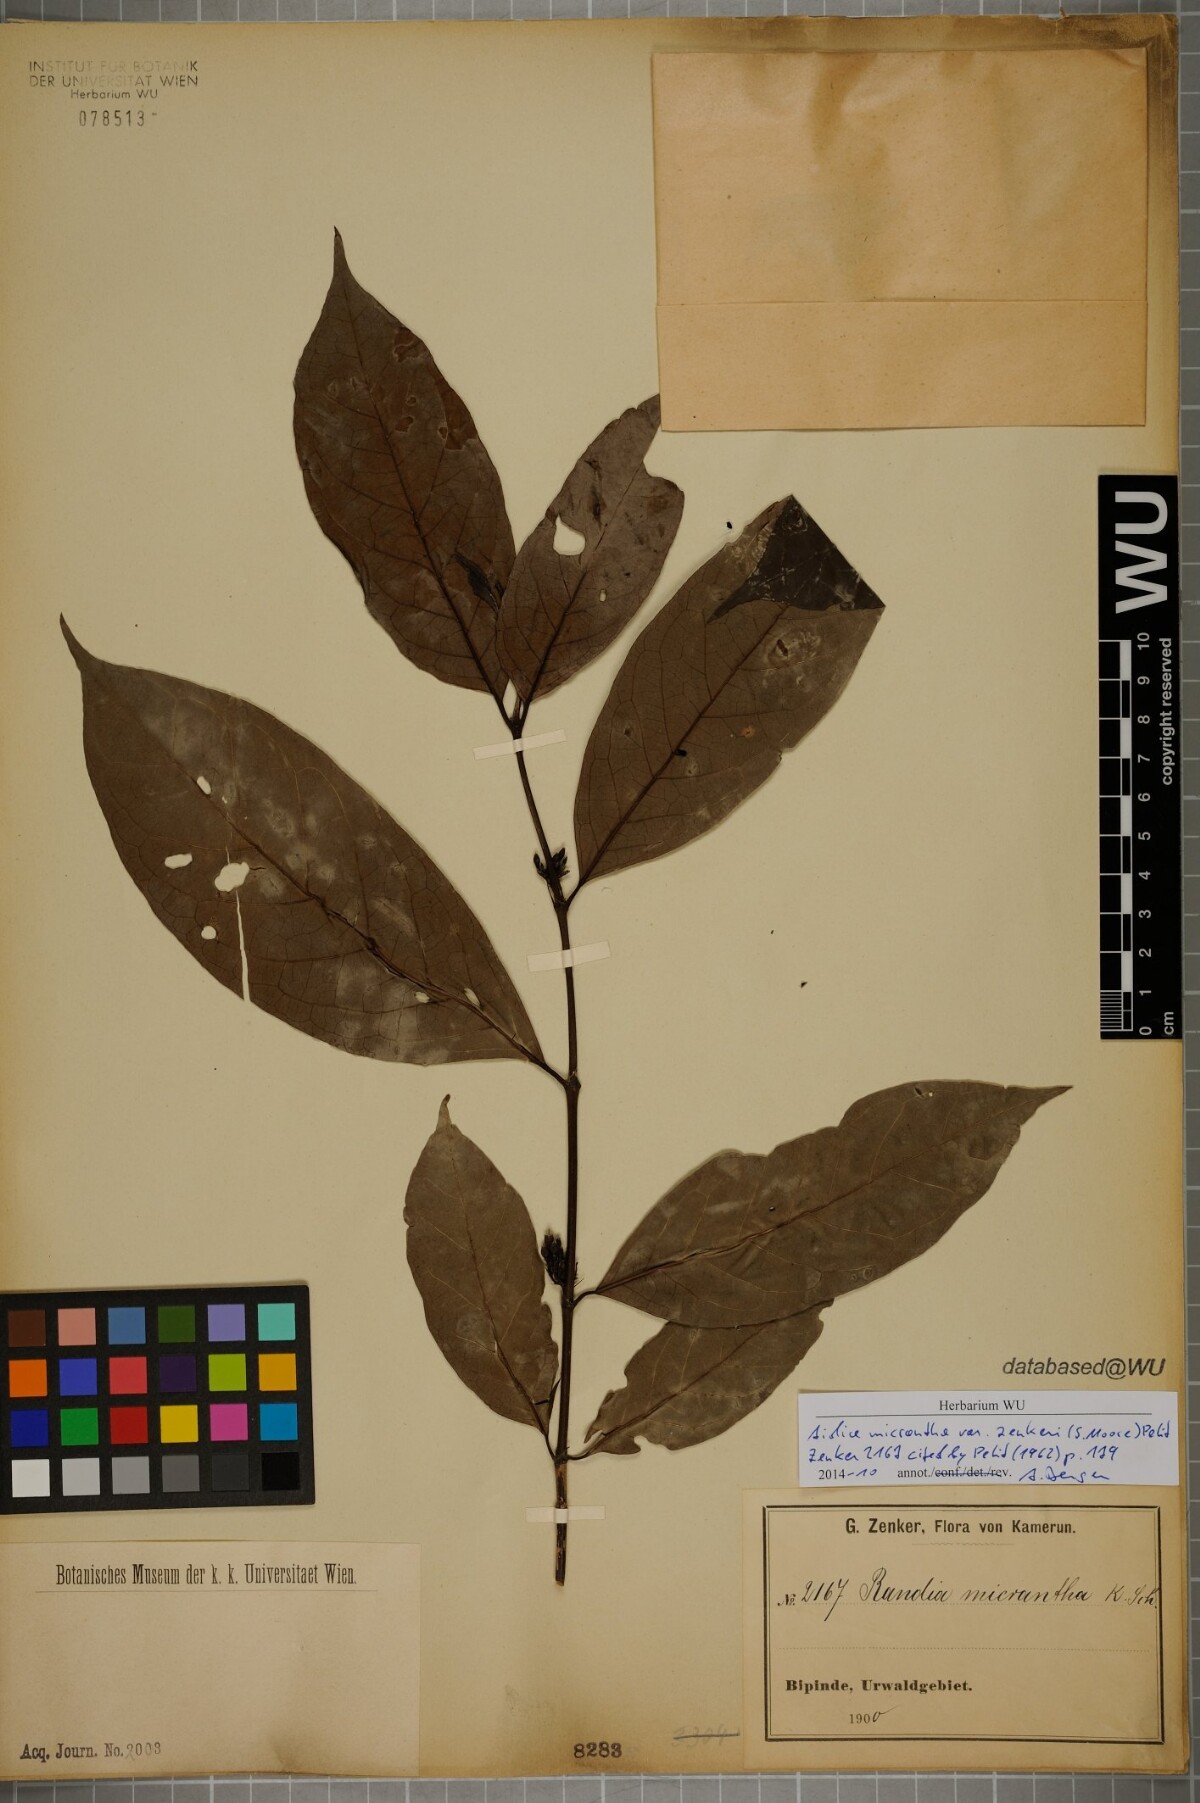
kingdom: Plantae
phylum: Tracheophyta
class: Magnoliopsida
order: Gentianales
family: Rubiaceae
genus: Aidia
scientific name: Aidia micrantha
